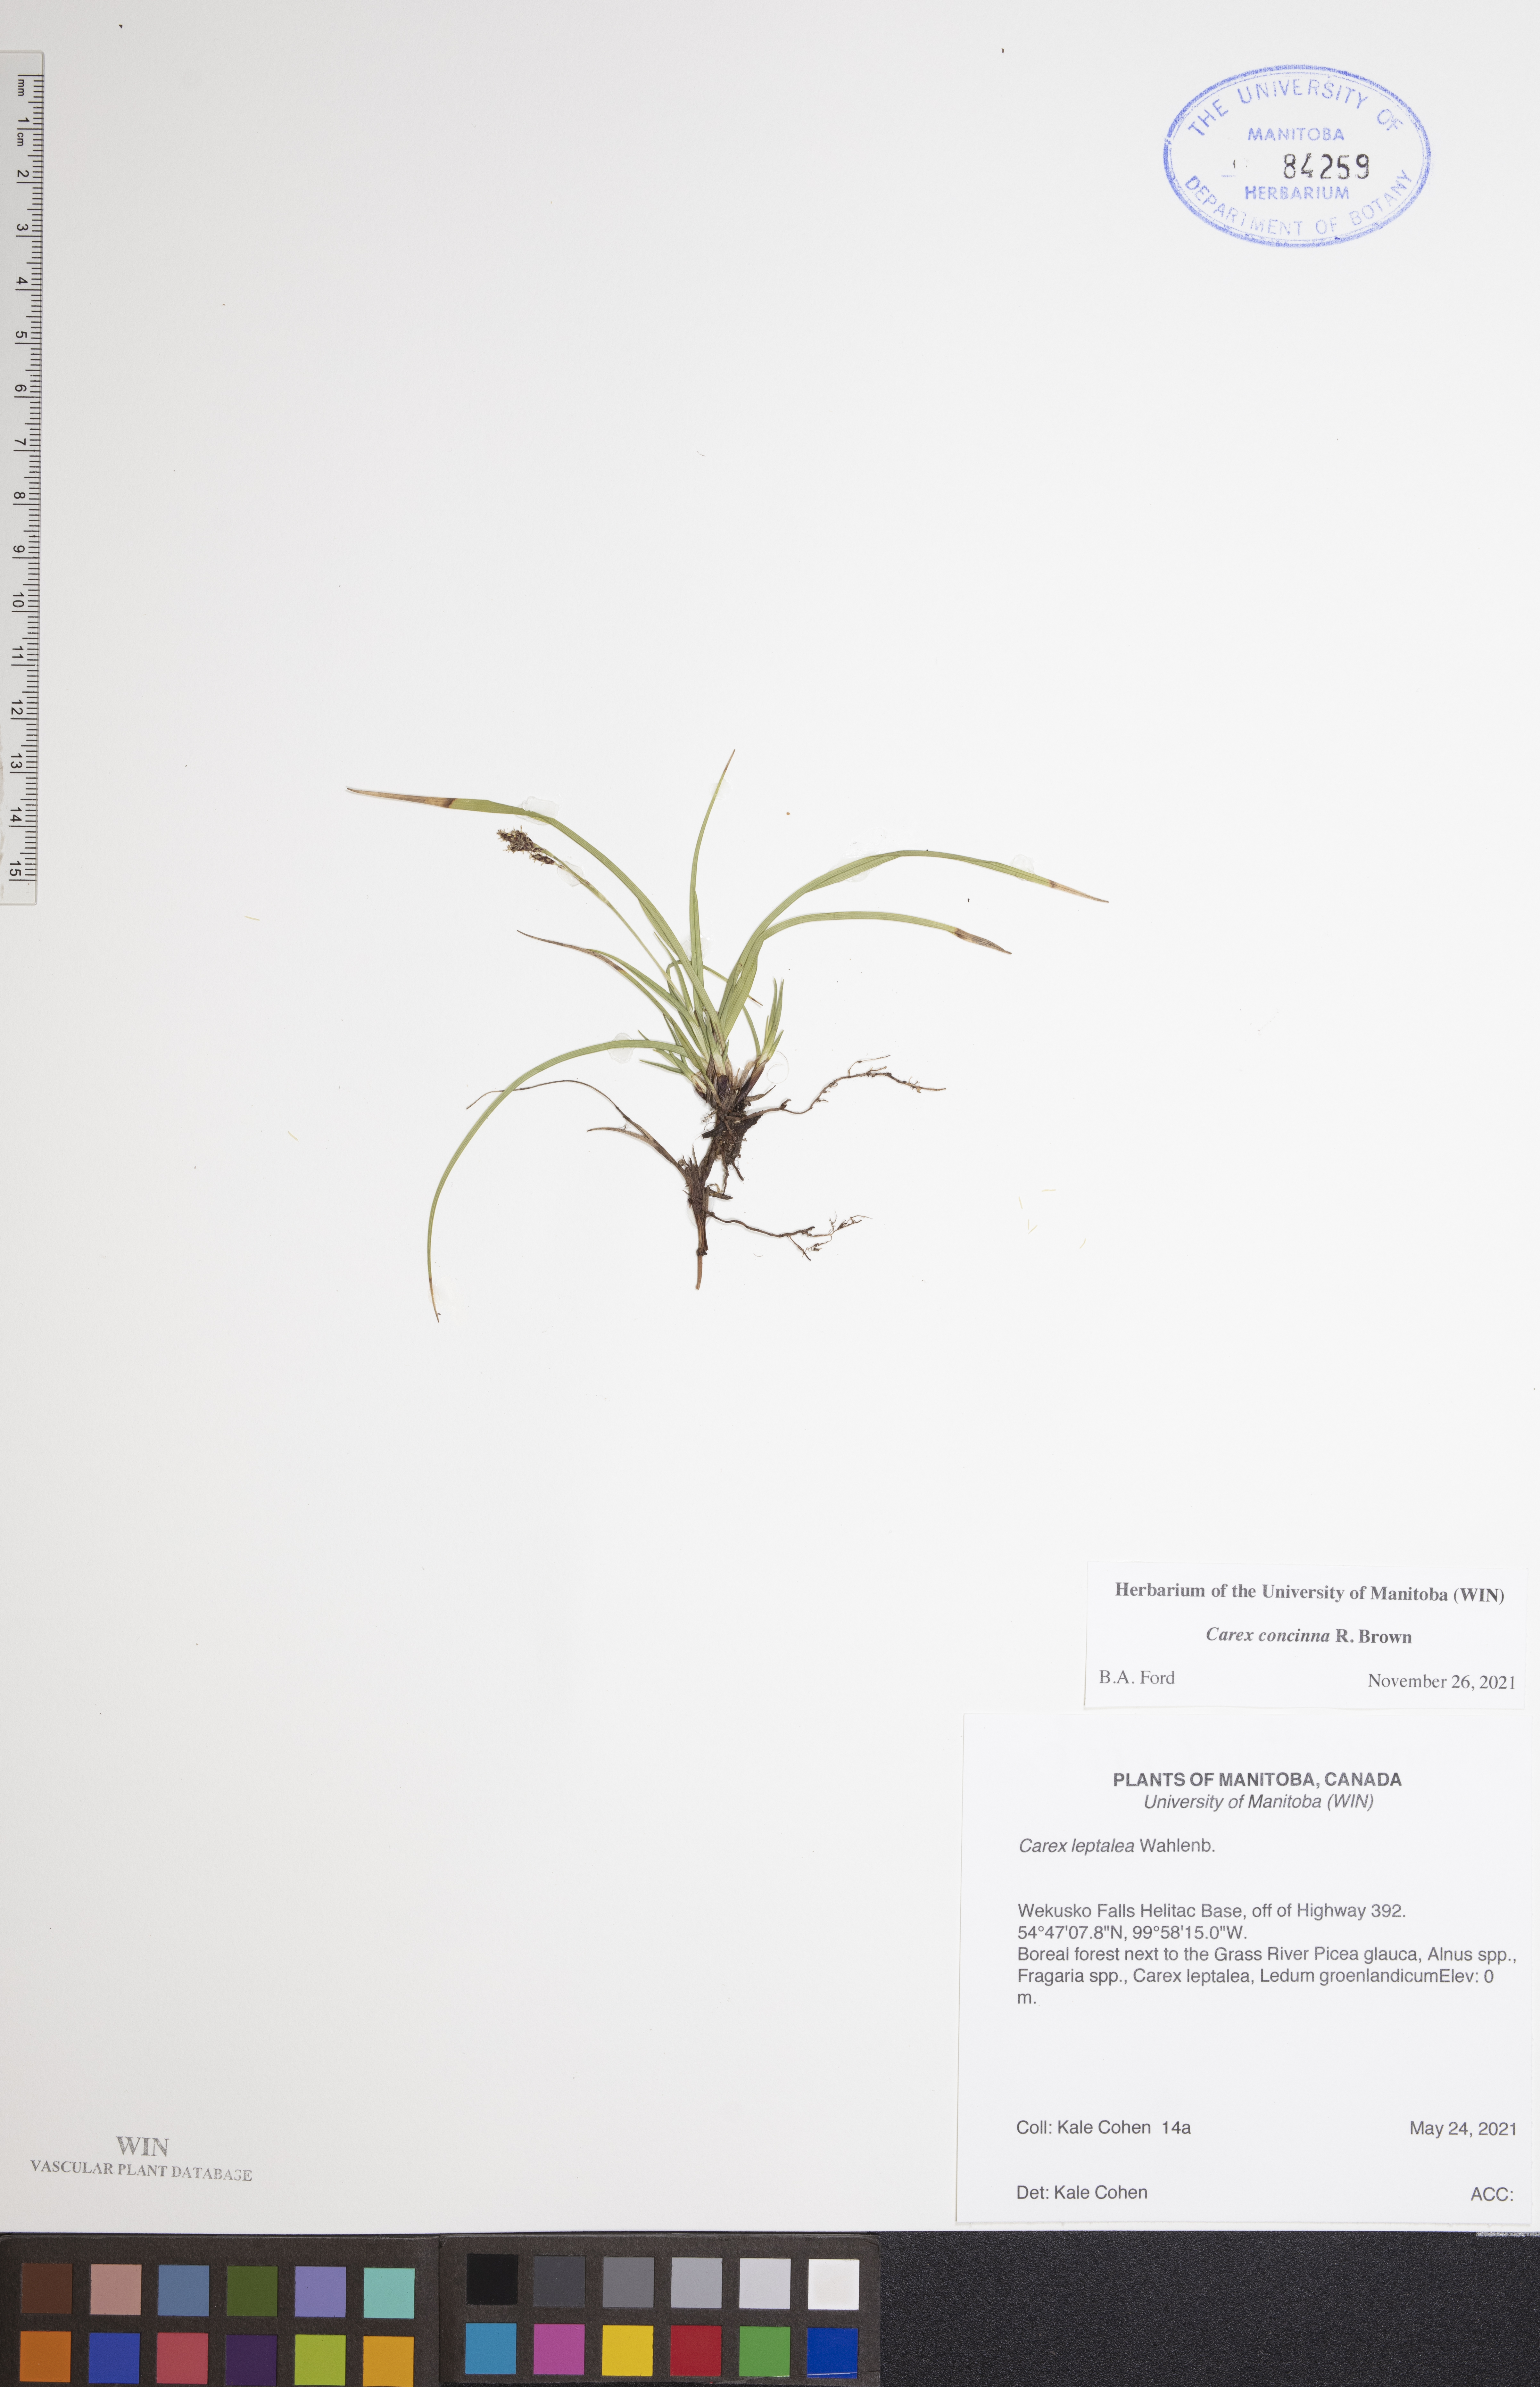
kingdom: Plantae
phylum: Tracheophyta
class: Liliopsida
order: Poales
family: Cyperaceae
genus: Carex
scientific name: Carex concinna
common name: Beautiful sedge
